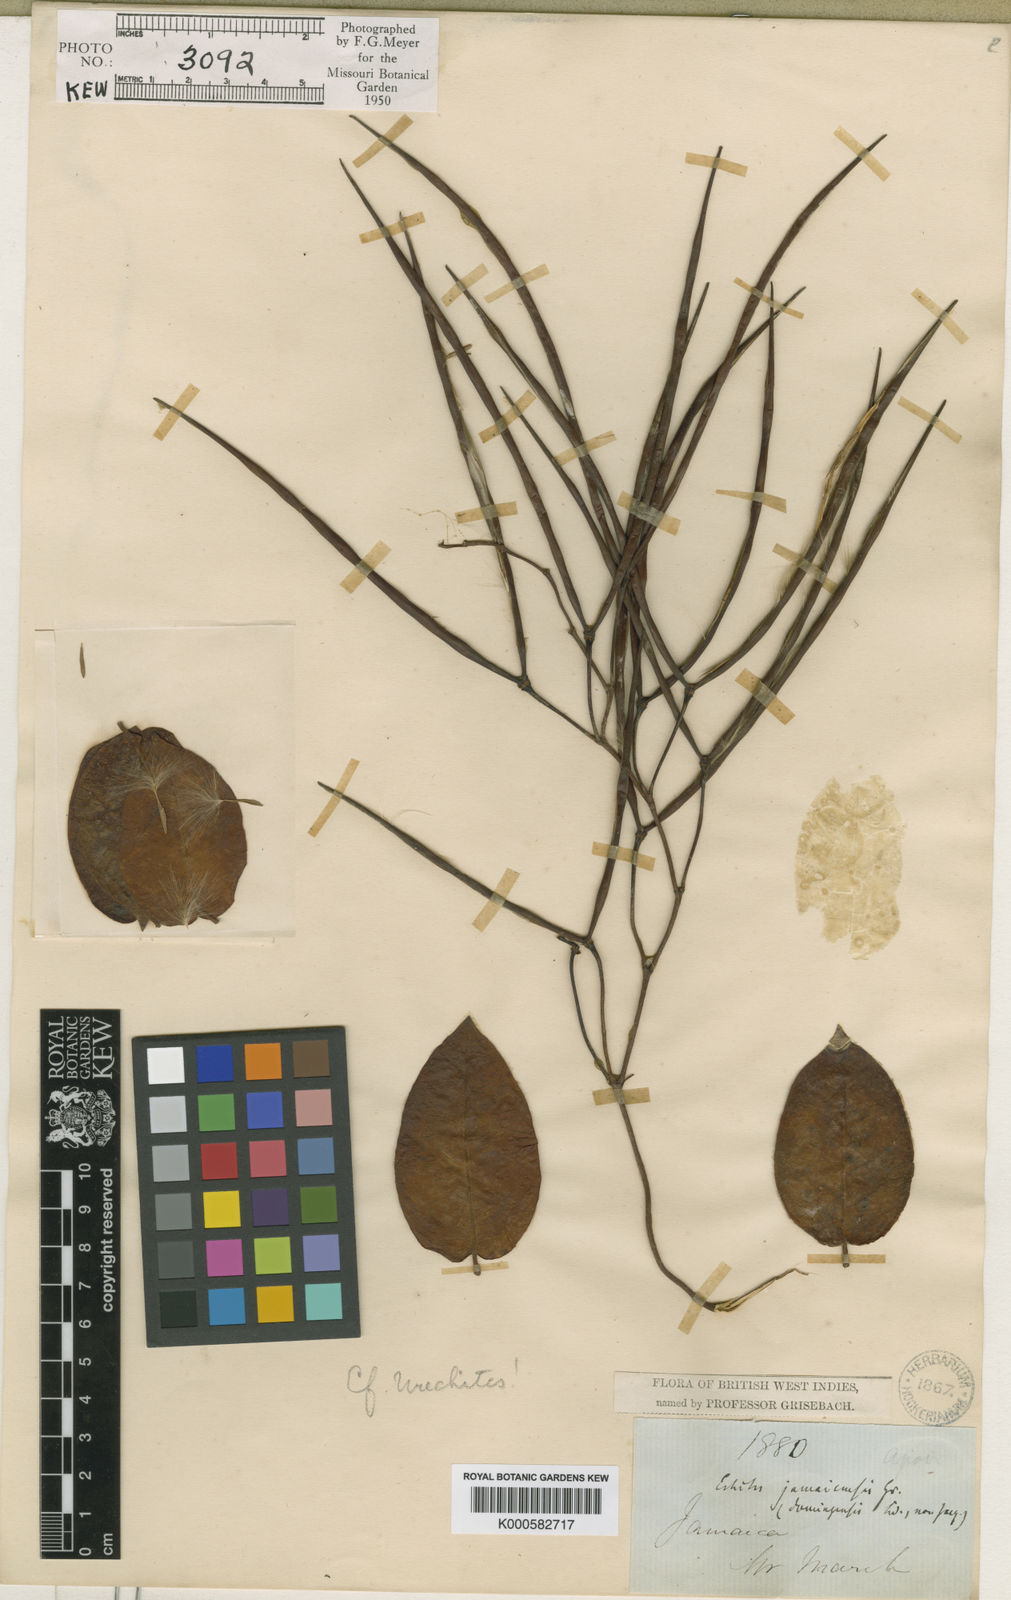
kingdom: Plantae
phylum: Tracheophyta
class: Magnoliopsida
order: Gentianales
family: Apocynaceae
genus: Angadenia
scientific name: Angadenia lindeniana
